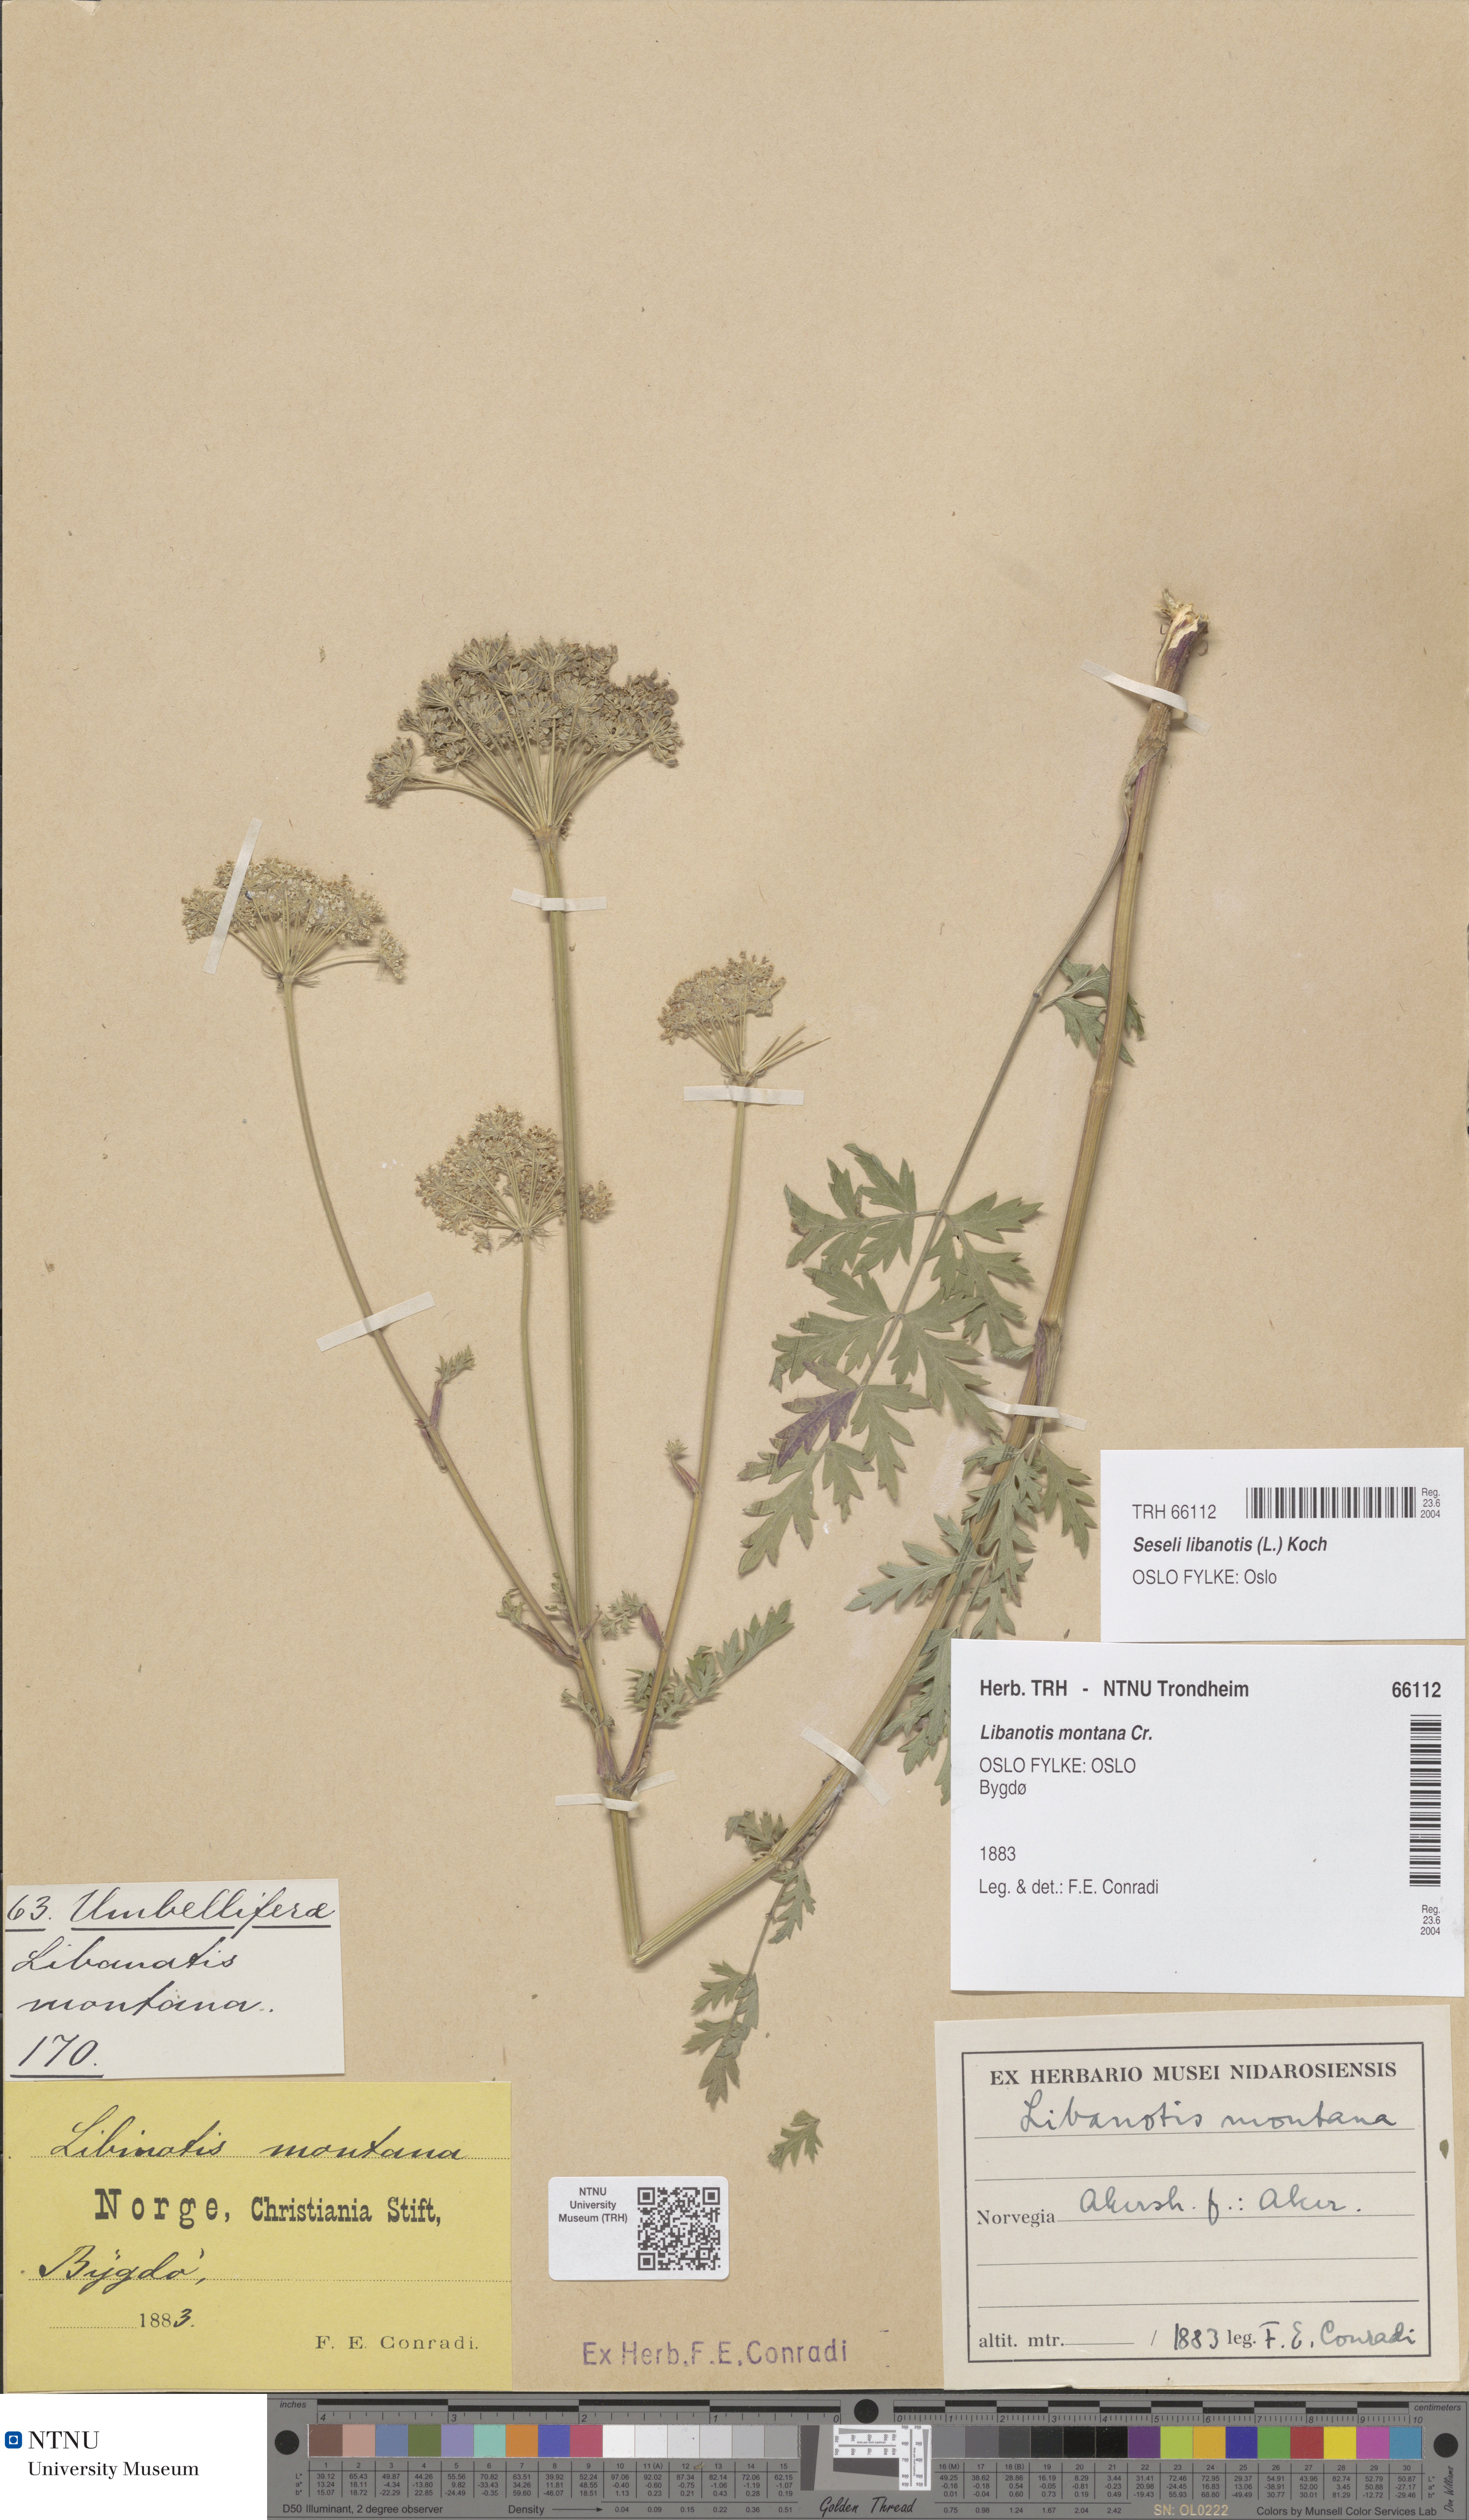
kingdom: Plantae
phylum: Tracheophyta
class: Magnoliopsida
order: Apiales
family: Apiaceae
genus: Seseli
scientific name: Seseli libanotis
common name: Mooncarrot
